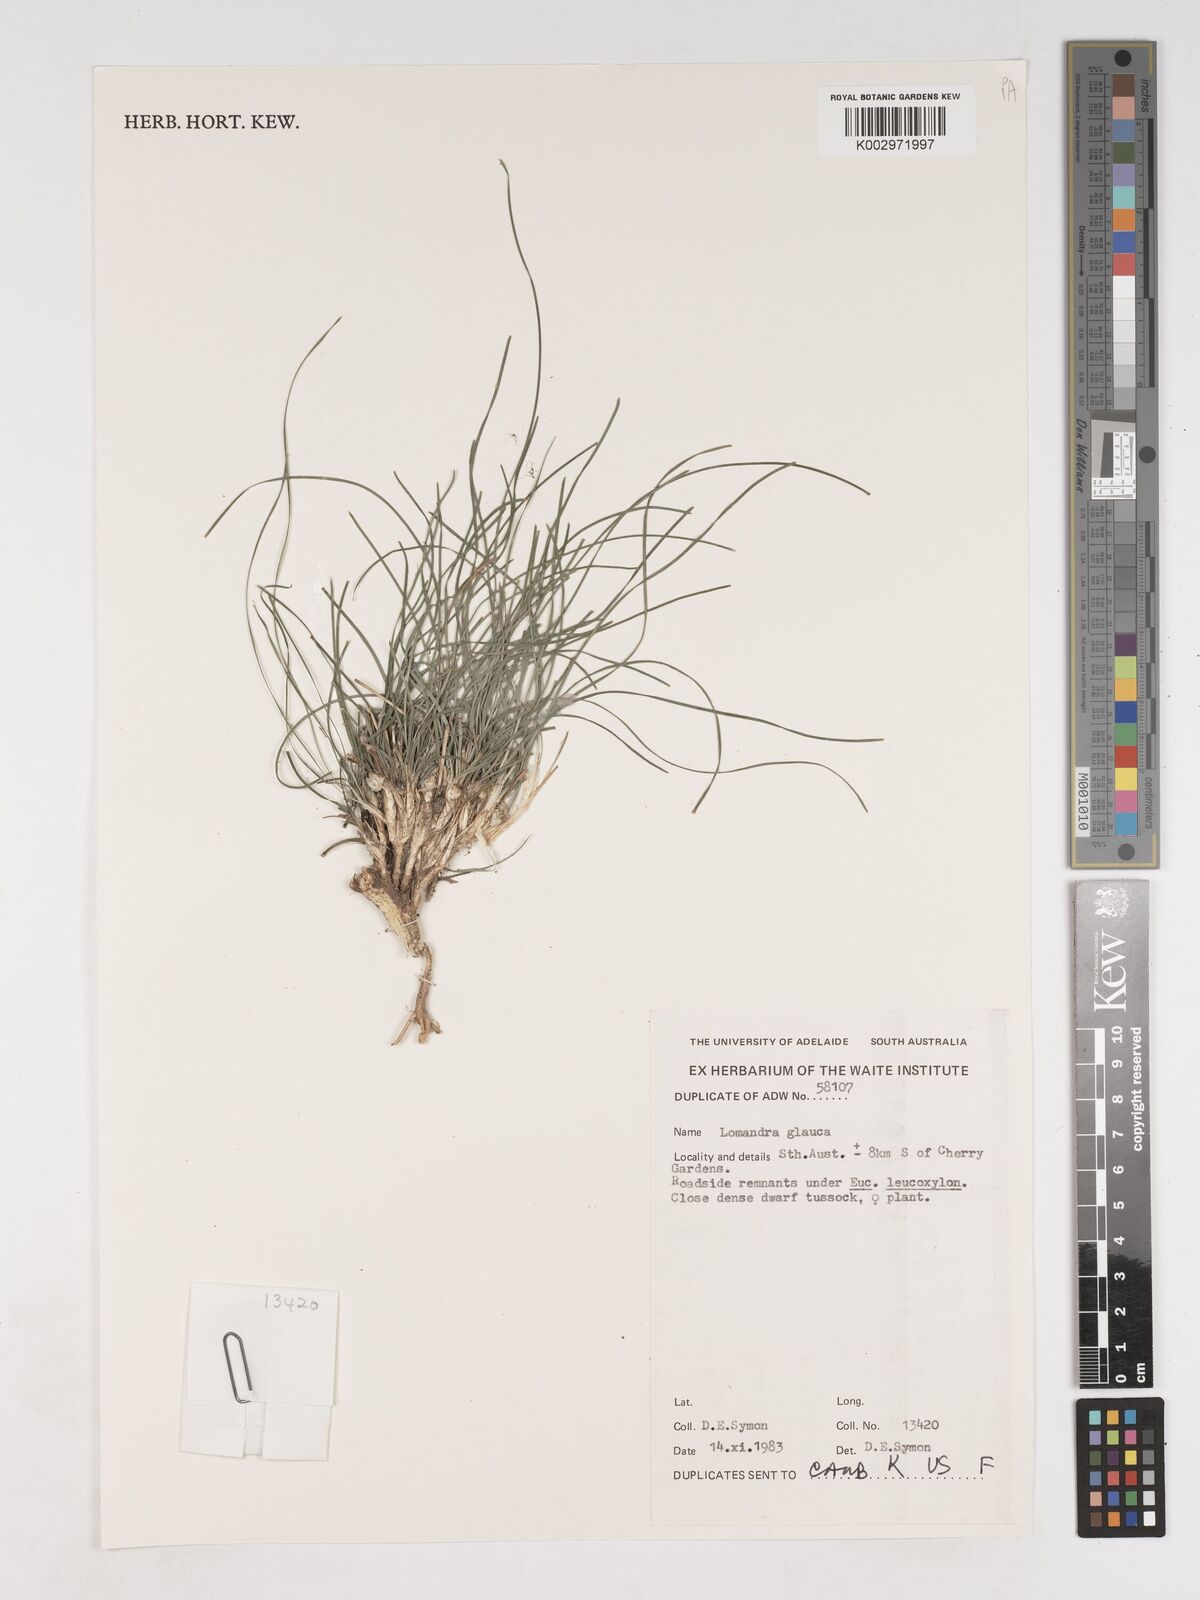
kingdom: Plantae
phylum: Tracheophyta
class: Liliopsida
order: Asparagales
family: Asparagaceae
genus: Lomandra
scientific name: Lomandra glauca
